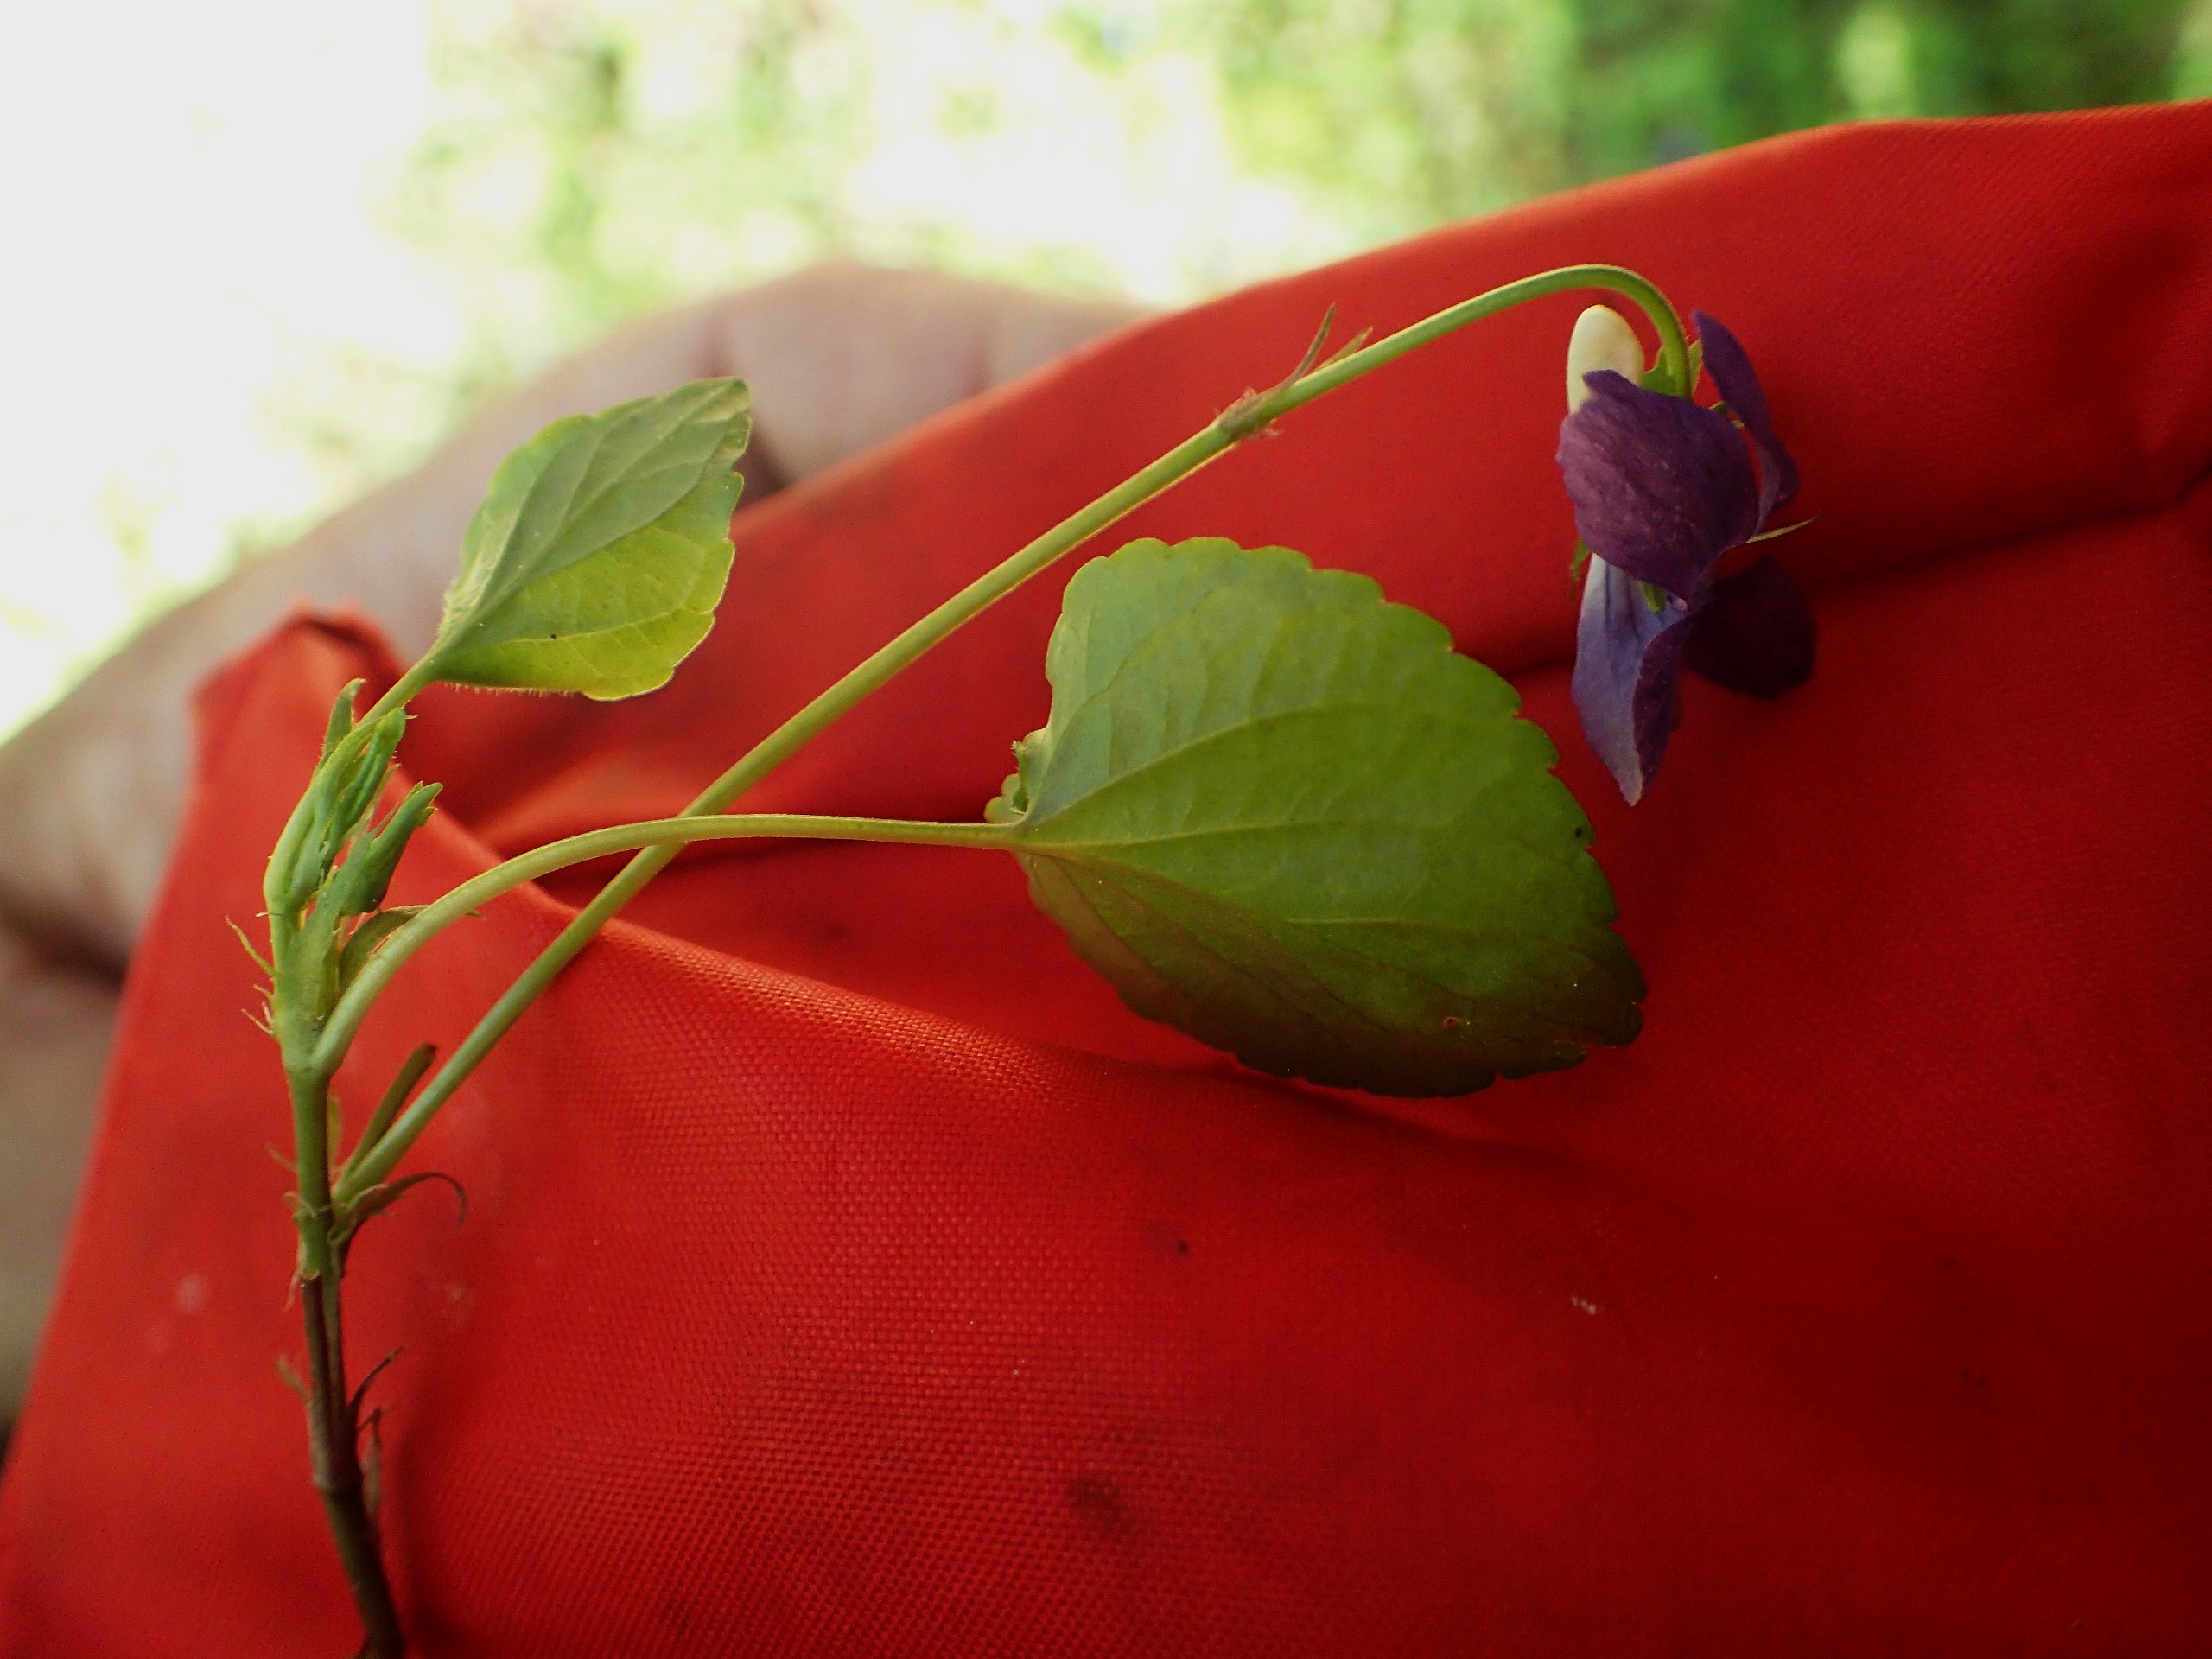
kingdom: Plantae
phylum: Tracheophyta
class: Magnoliopsida
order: Malpighiales
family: Violaceae
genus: Viola
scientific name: Viola riviniana
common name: Krat-viol
